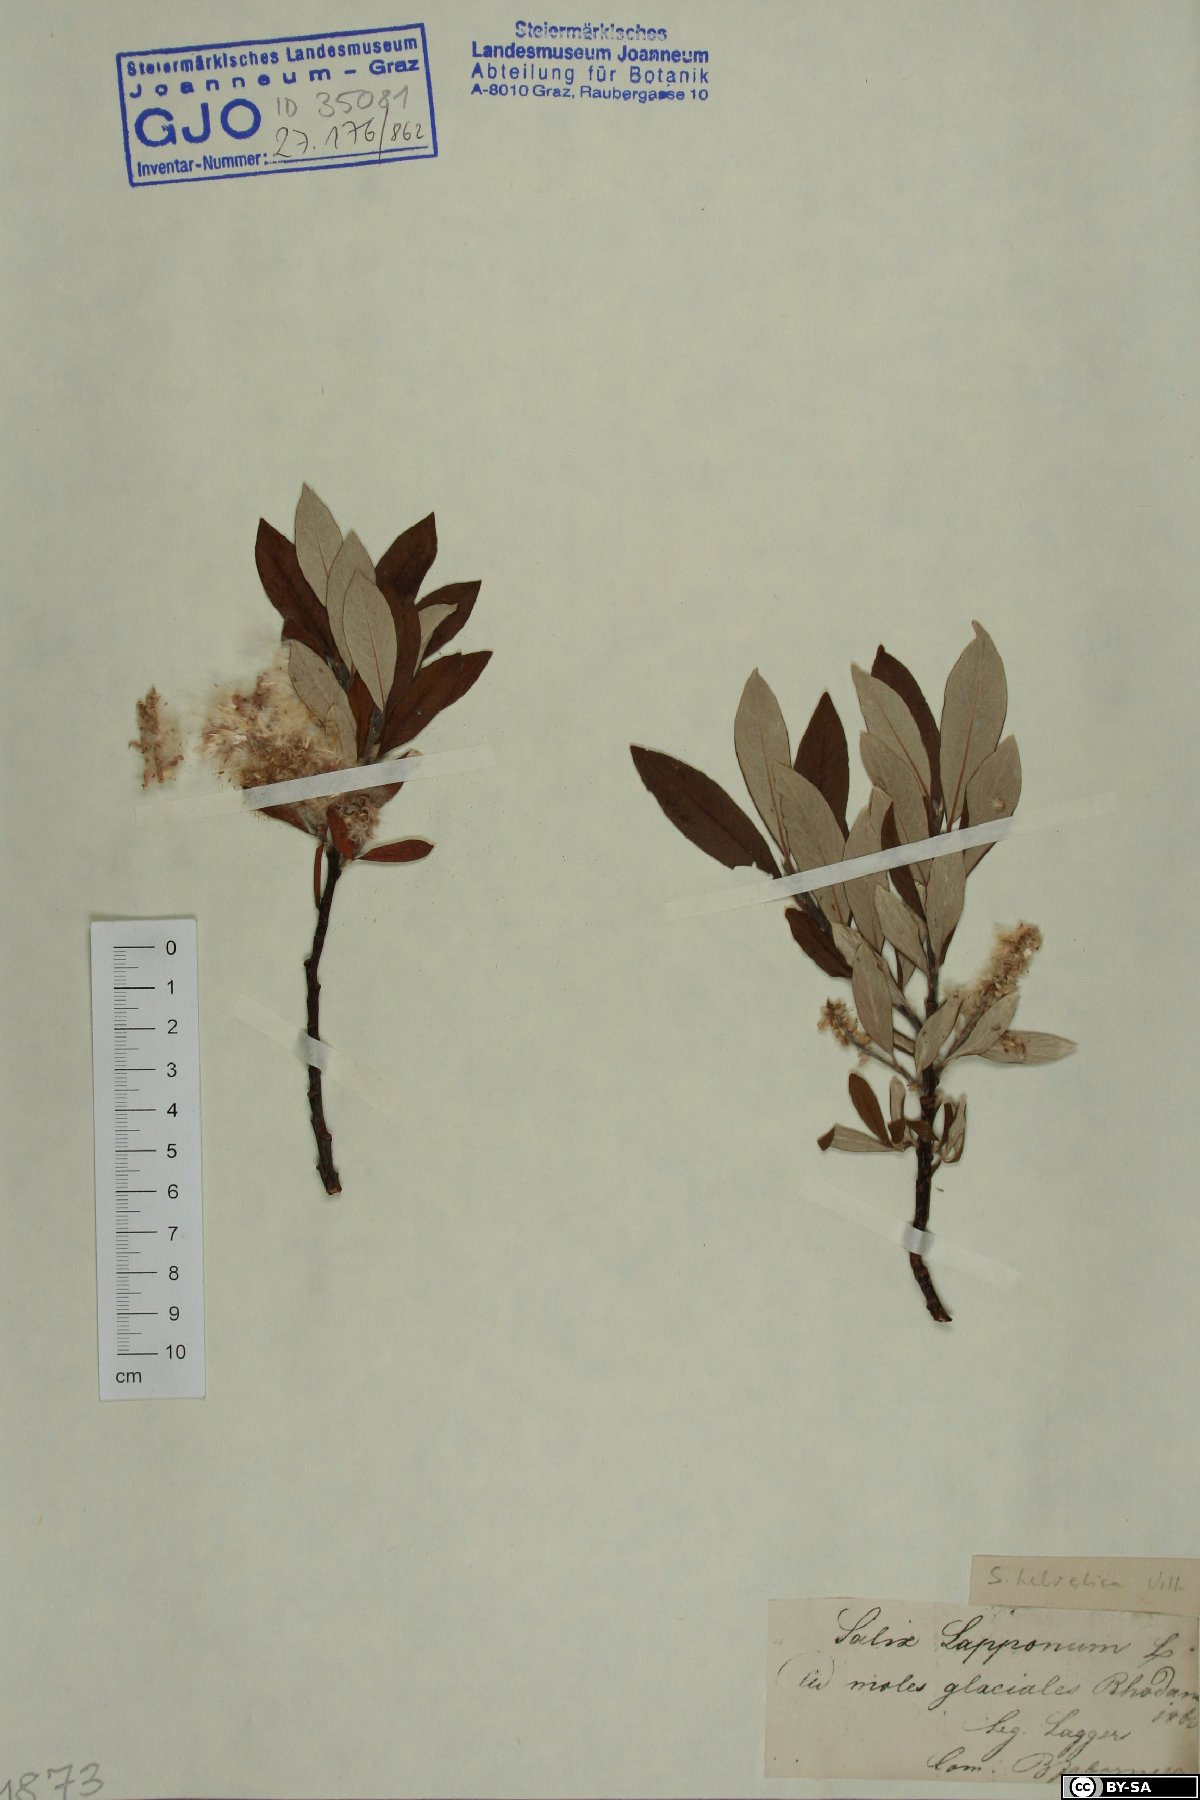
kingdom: Plantae
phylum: Tracheophyta
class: Magnoliopsida
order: Malpighiales
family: Salicaceae
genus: Salix
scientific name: Salix helvetica
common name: Swiss willow
